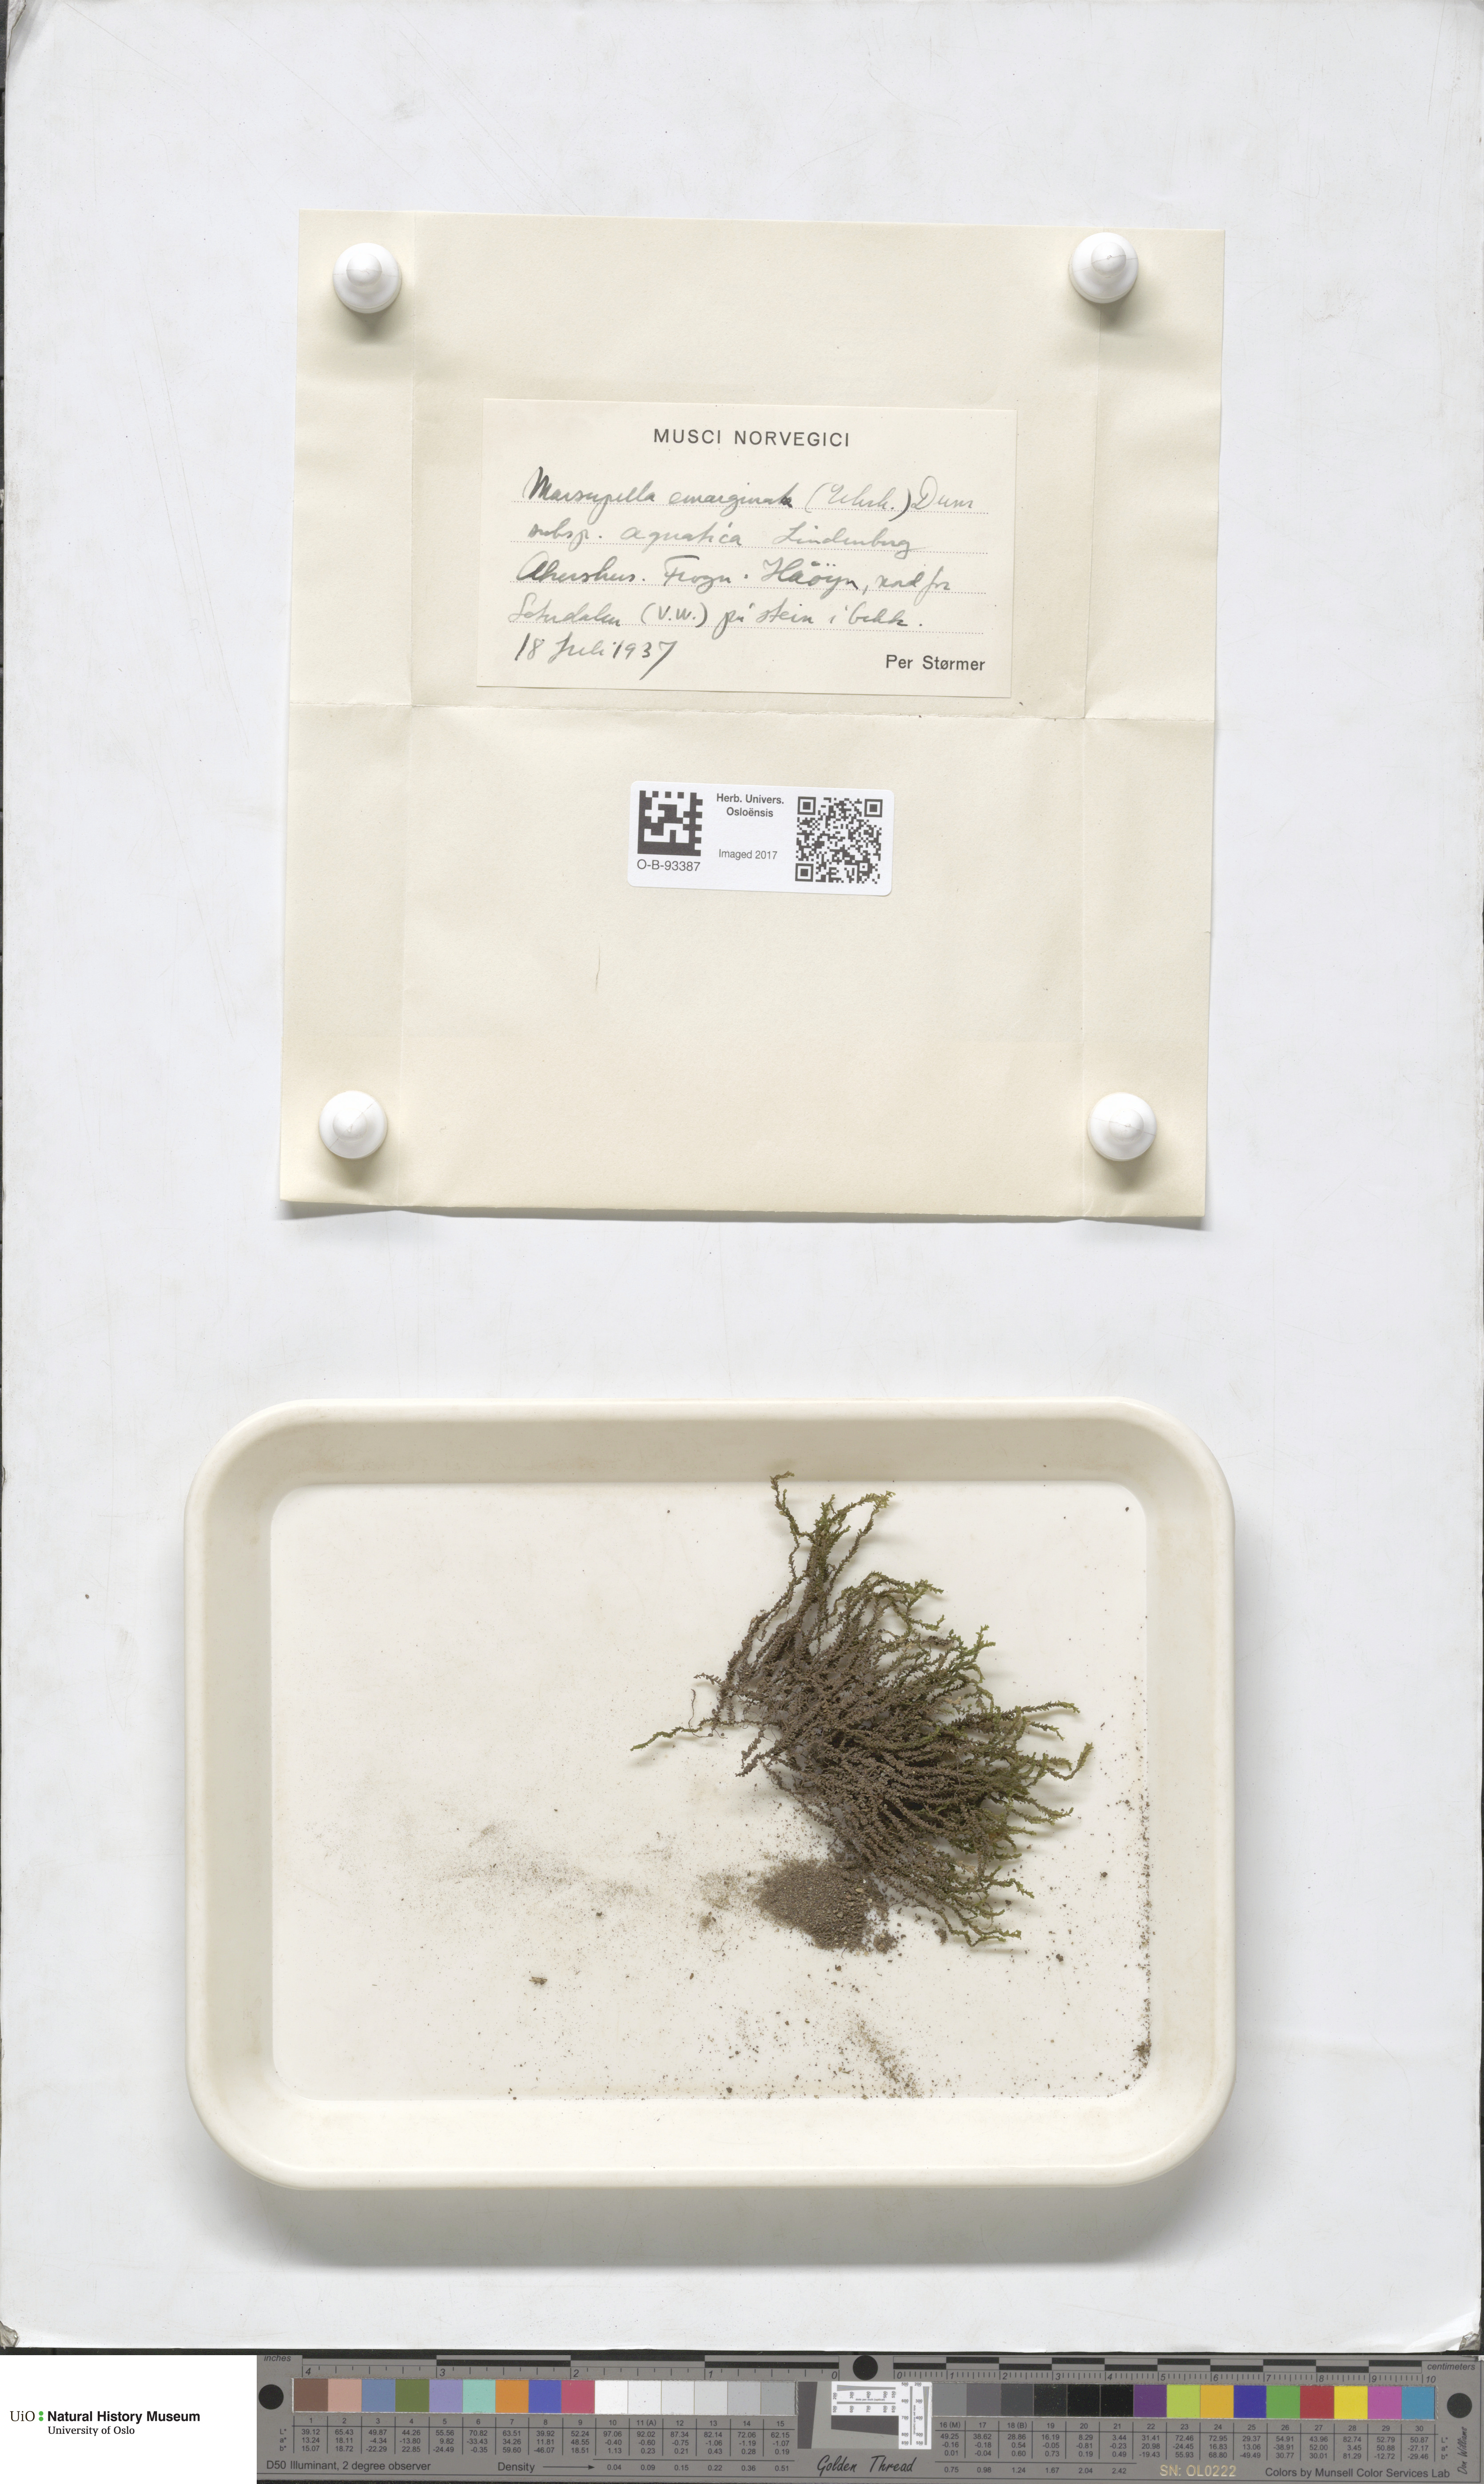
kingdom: Plantae
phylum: Marchantiophyta
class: Jungermanniopsida
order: Jungermanniales
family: Gymnomitriaceae
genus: Marsupella
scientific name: Marsupella aquatica
